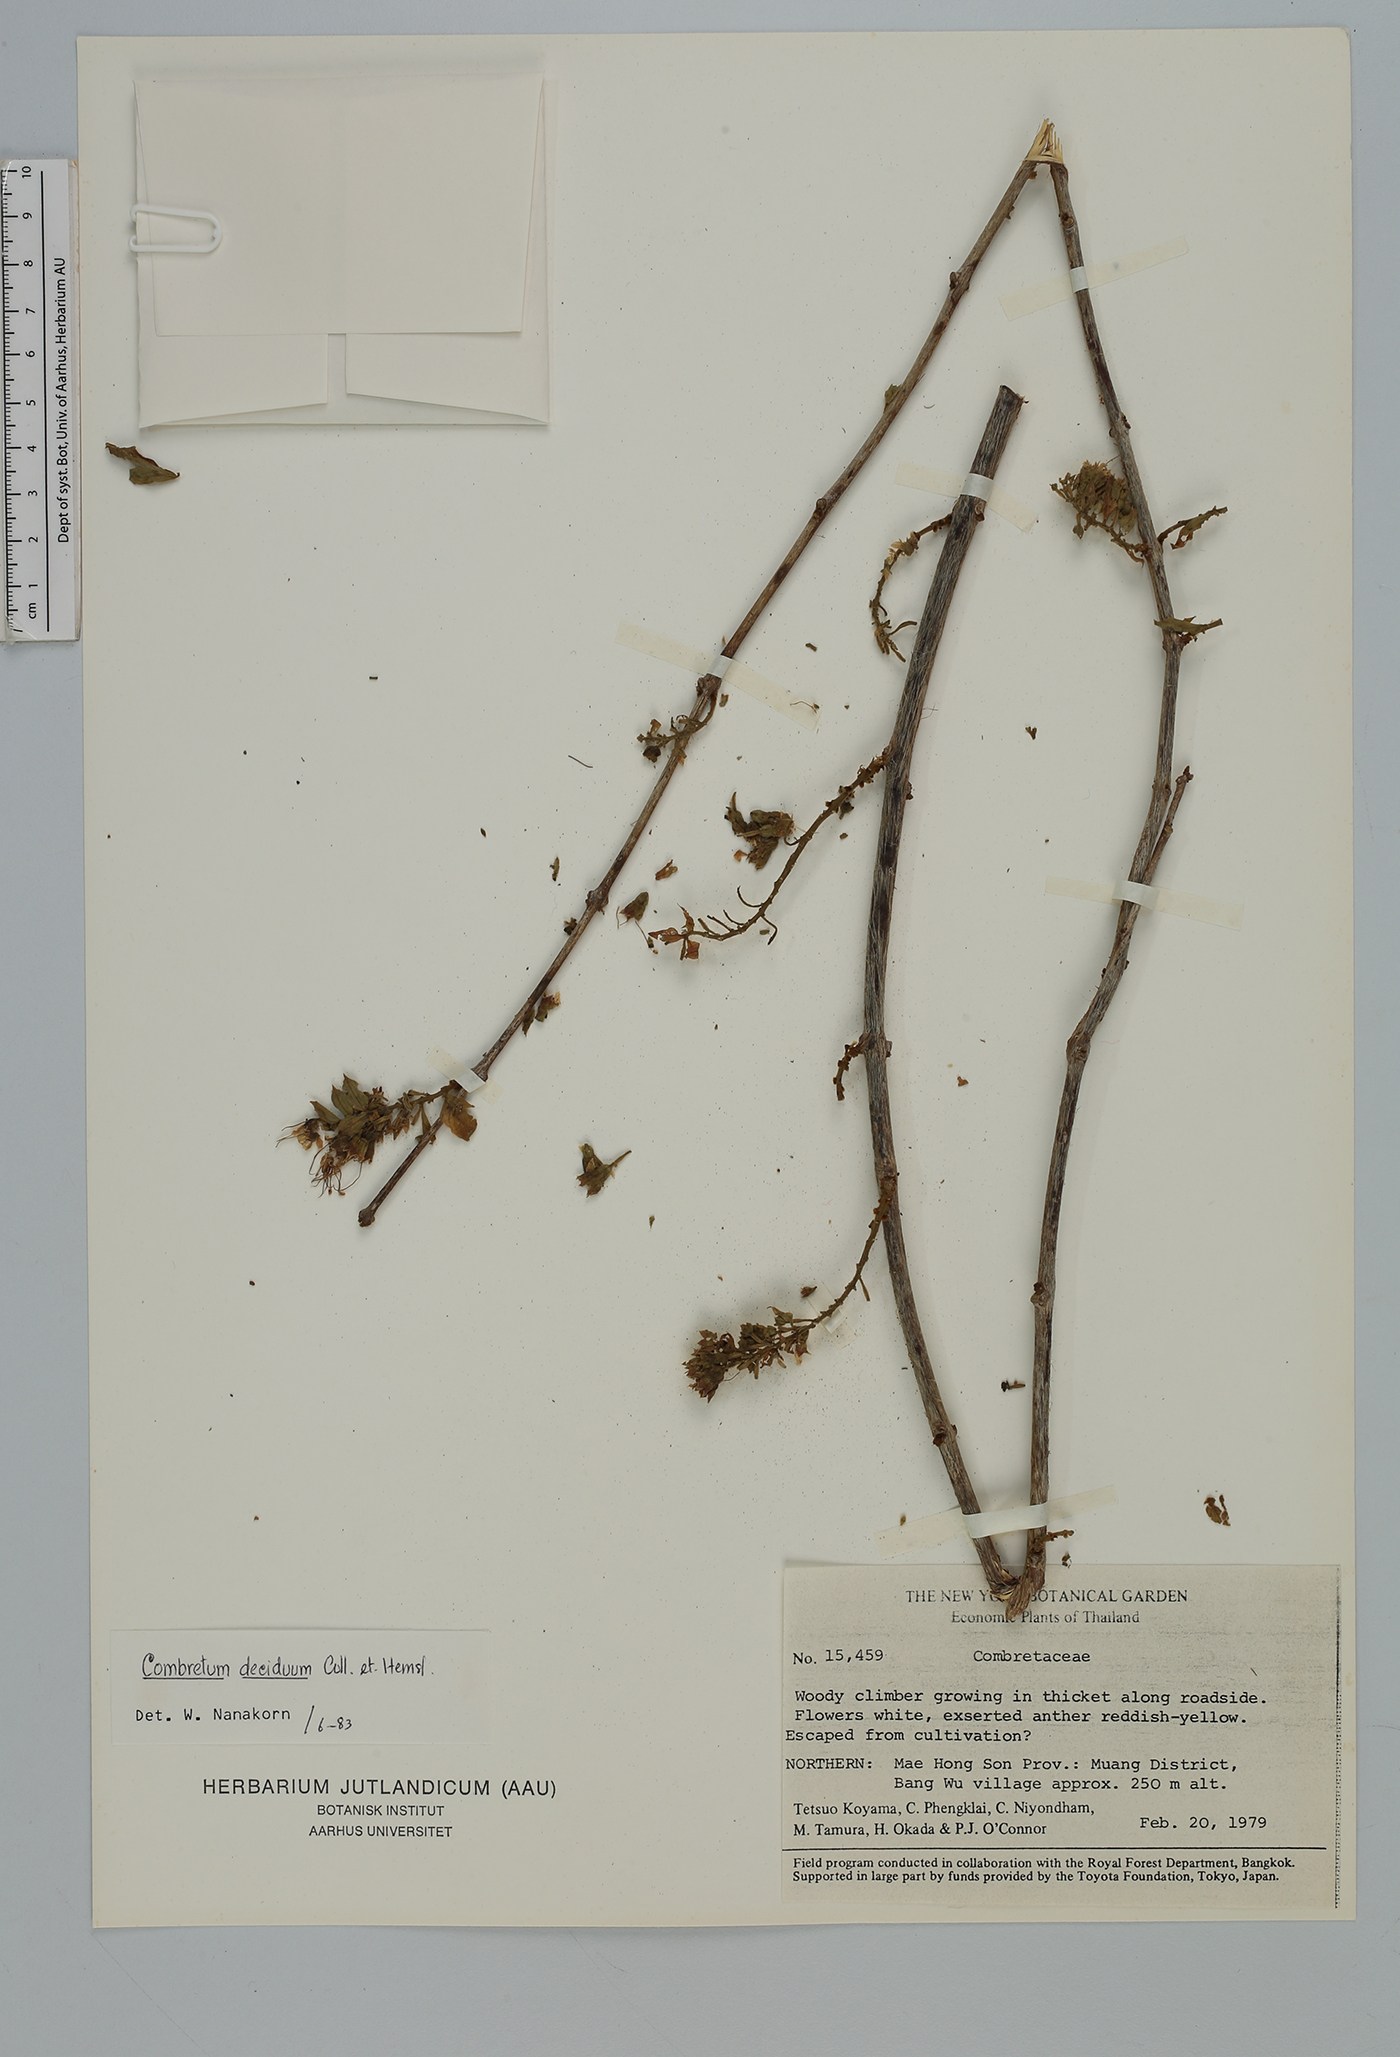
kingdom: Plantae
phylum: Tracheophyta
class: Magnoliopsida
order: Myrtales
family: Combretaceae
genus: Combretum
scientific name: Combretum deciduum
